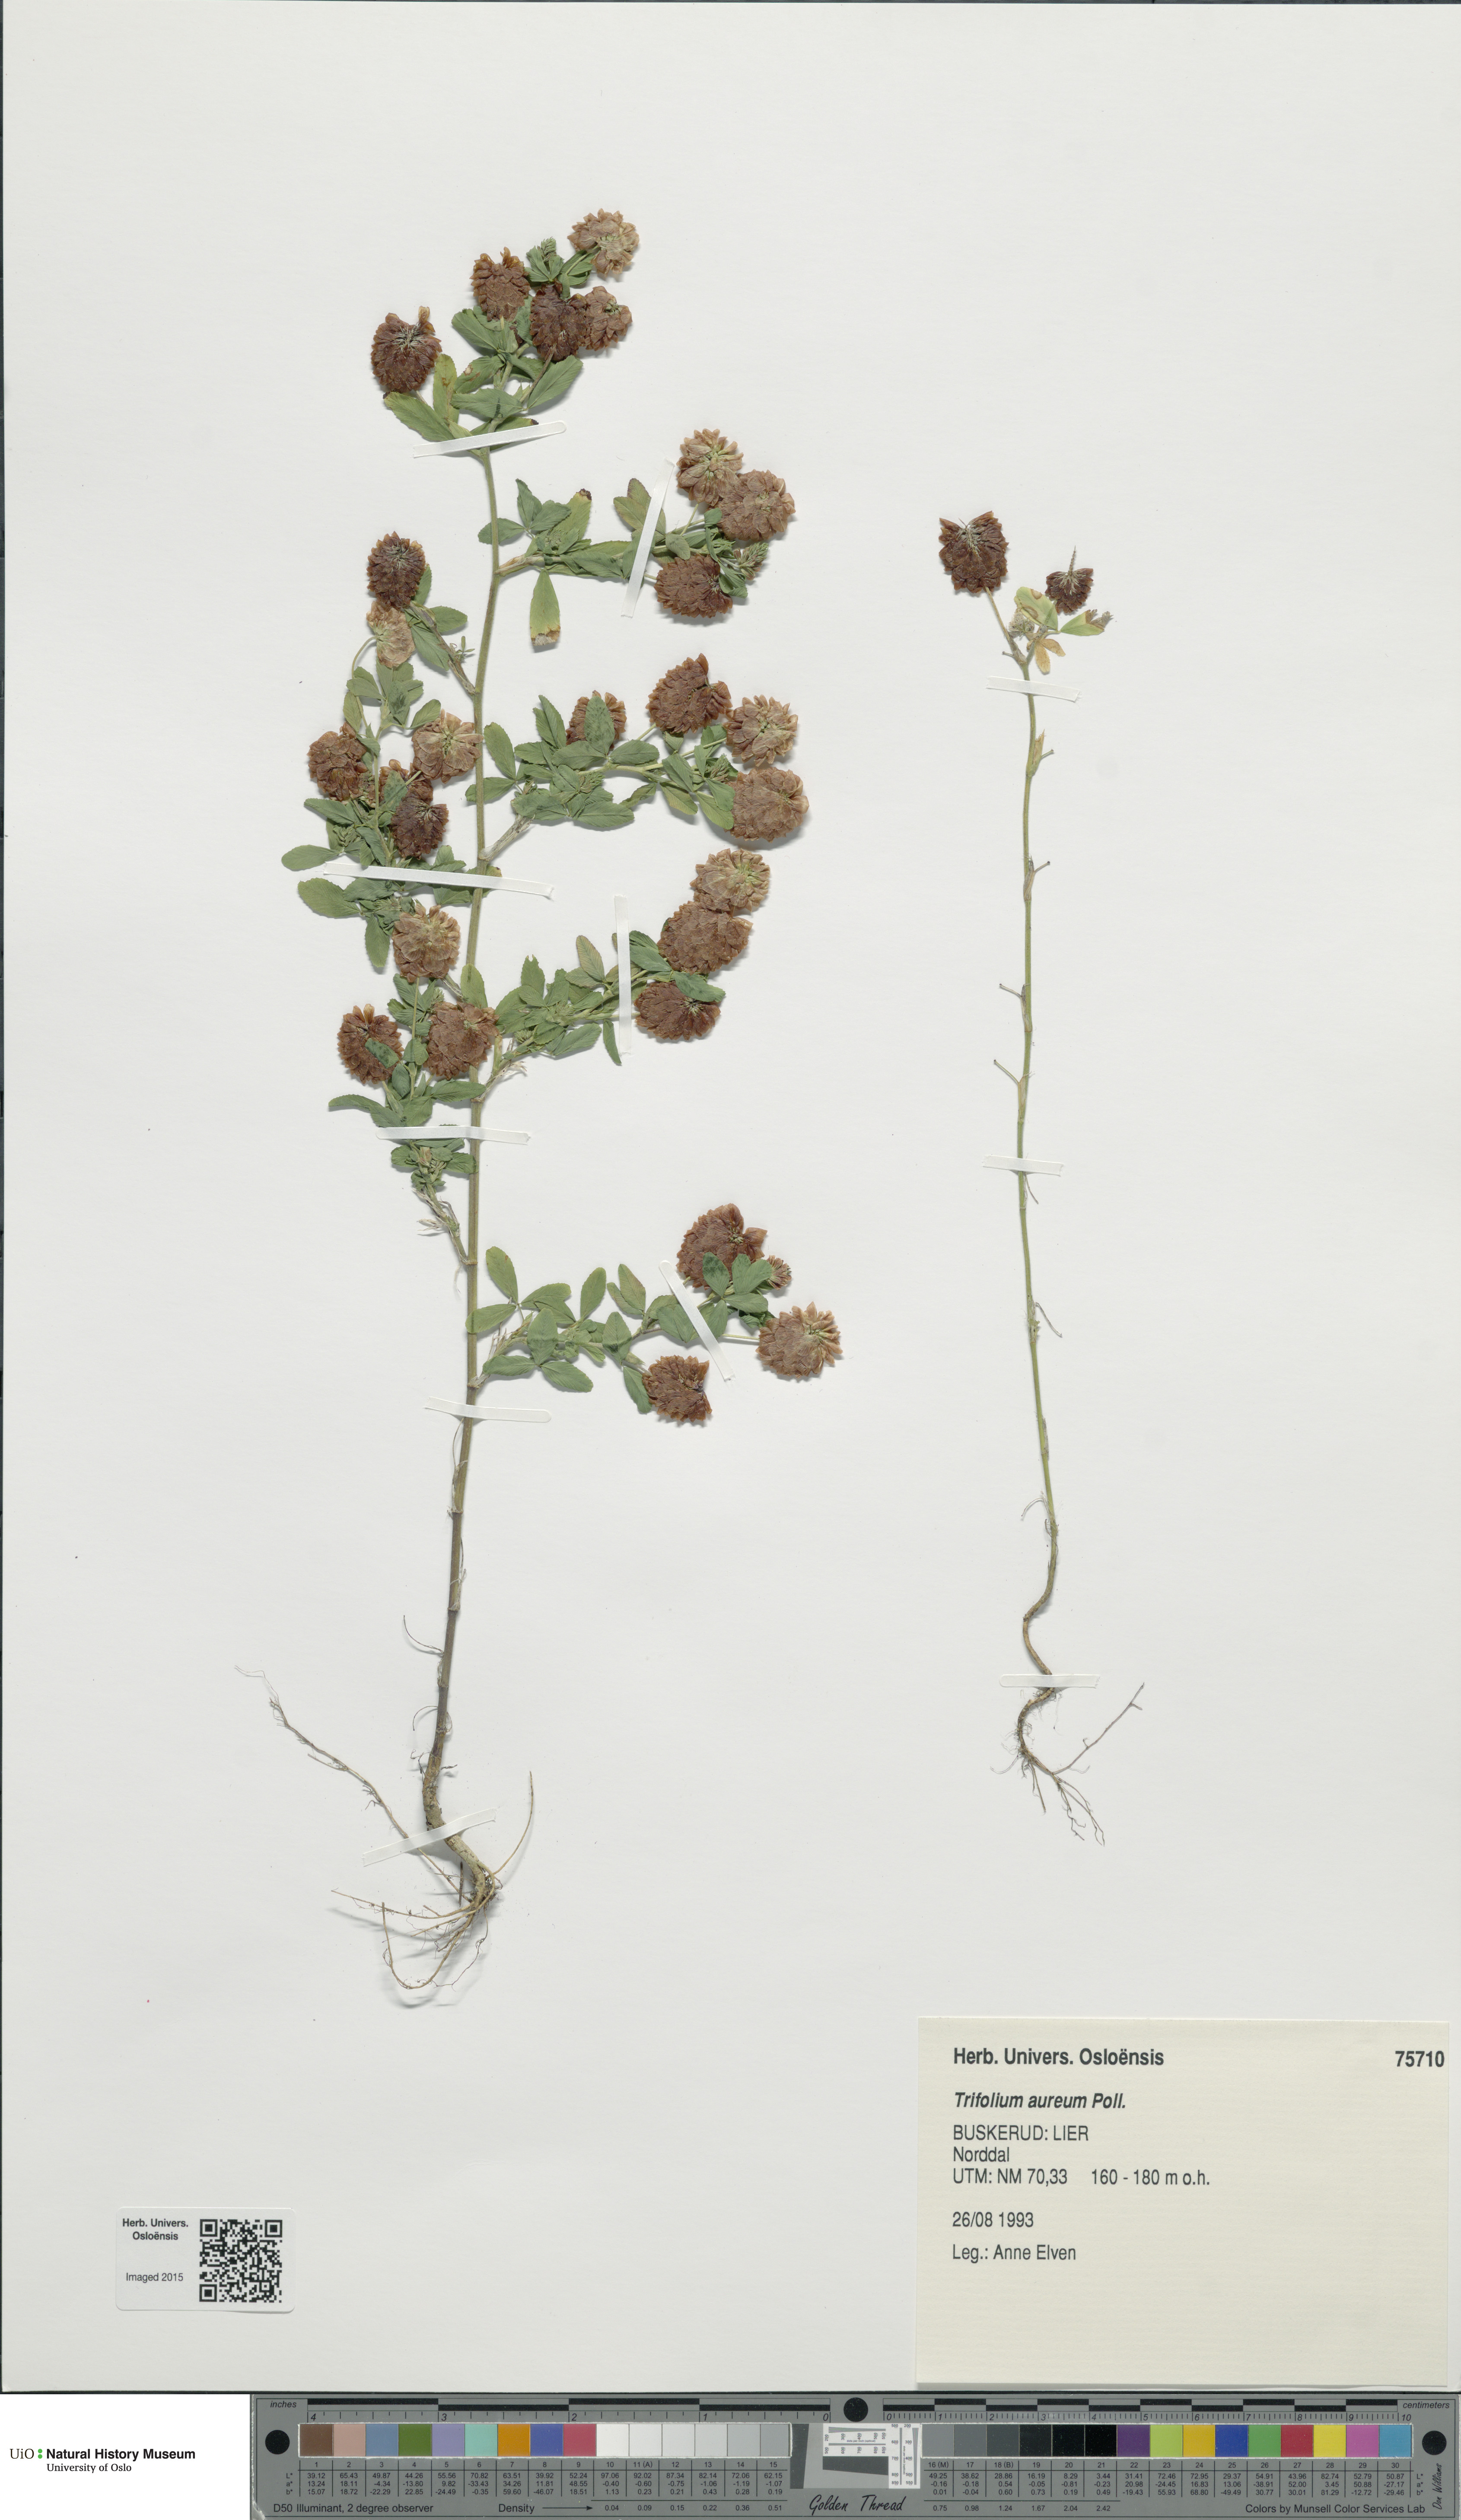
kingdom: Plantae
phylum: Tracheophyta
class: Magnoliopsida
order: Fabales
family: Fabaceae
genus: Trifolium
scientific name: Trifolium aureum
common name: Golden clover
